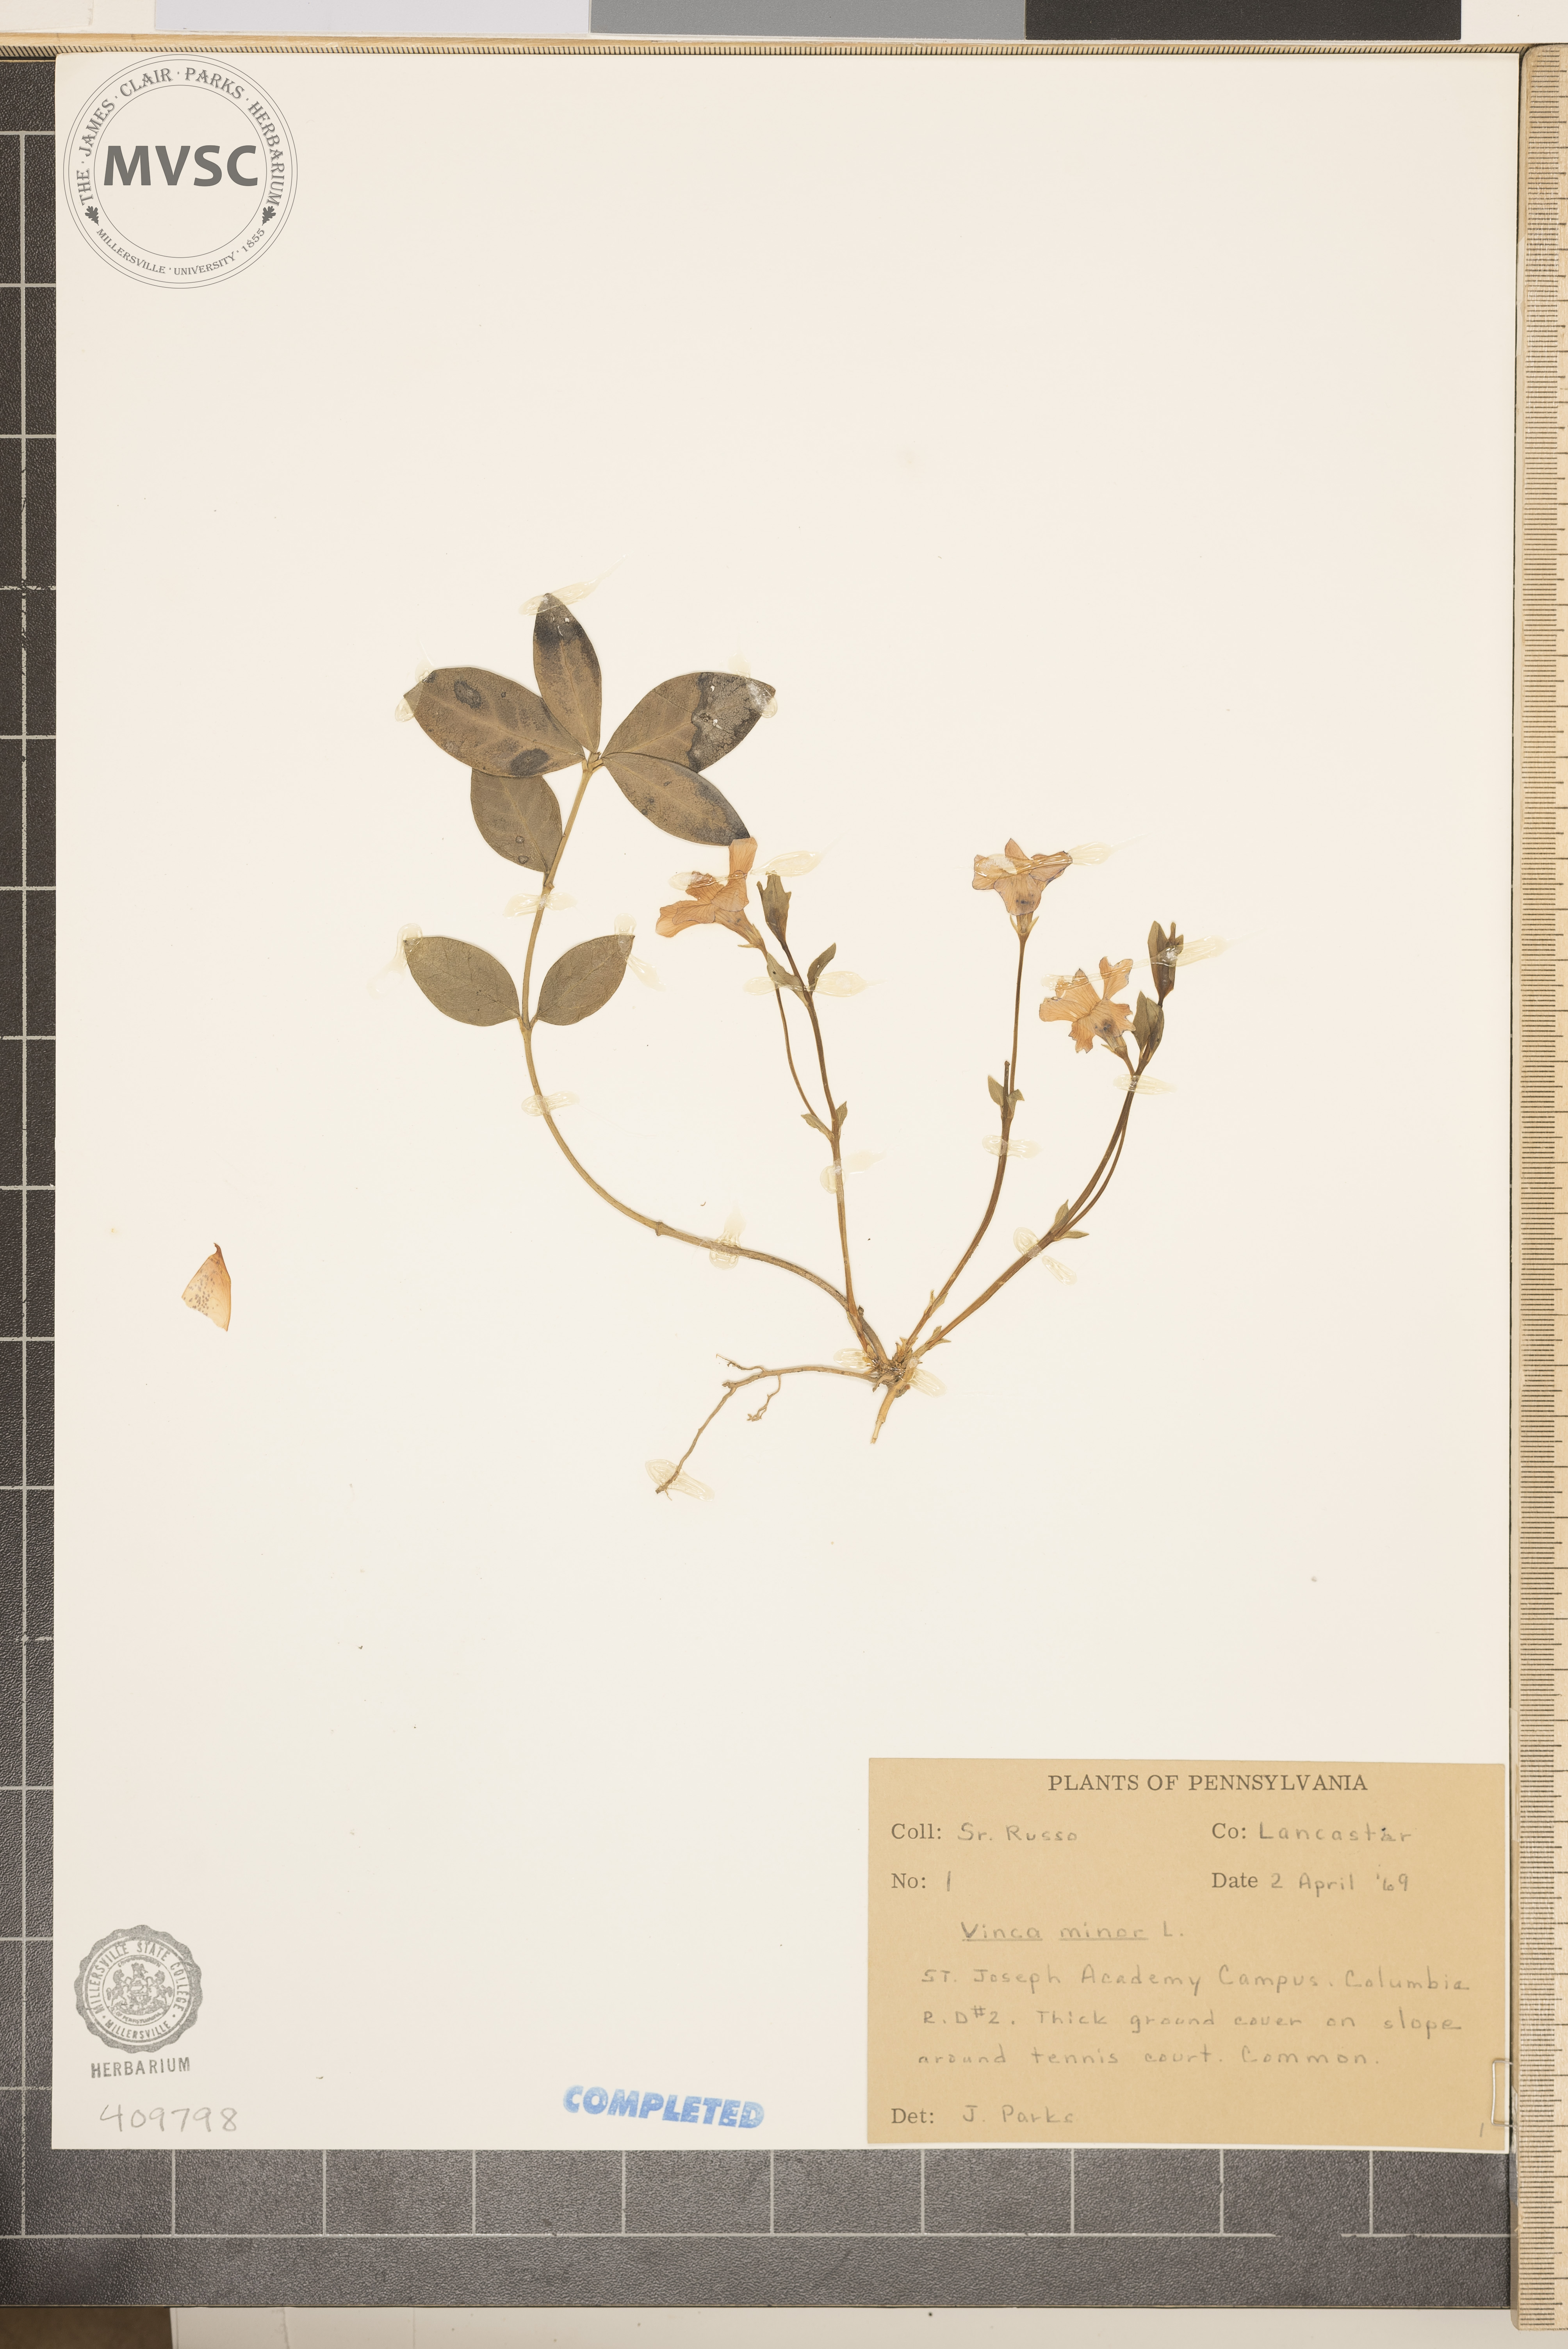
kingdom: Plantae
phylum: Tracheophyta
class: Magnoliopsida
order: Gentianales
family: Apocynaceae
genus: Vinca
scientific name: Vinca minor
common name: Lesser periwinkle
